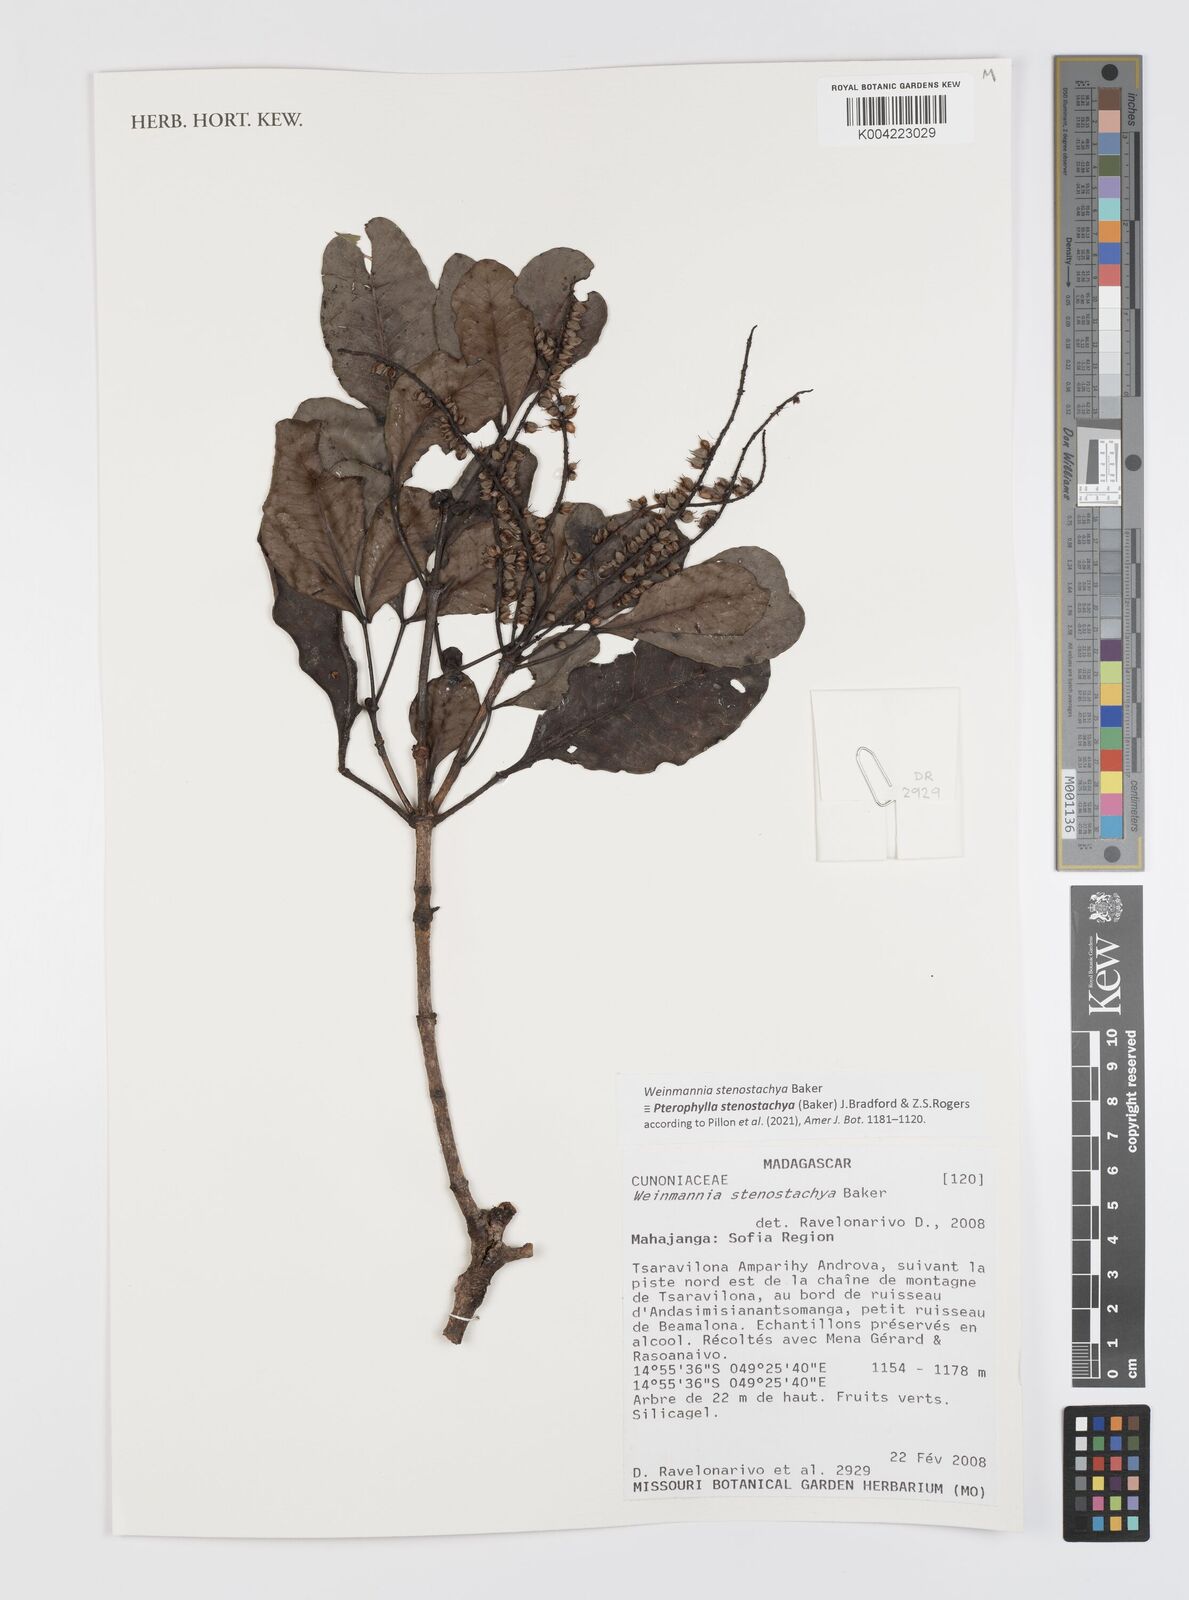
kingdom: Plantae
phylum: Tracheophyta
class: Magnoliopsida
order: Oxalidales
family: Cunoniaceae
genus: Pterophylla
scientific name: Pterophylla stenostachya
